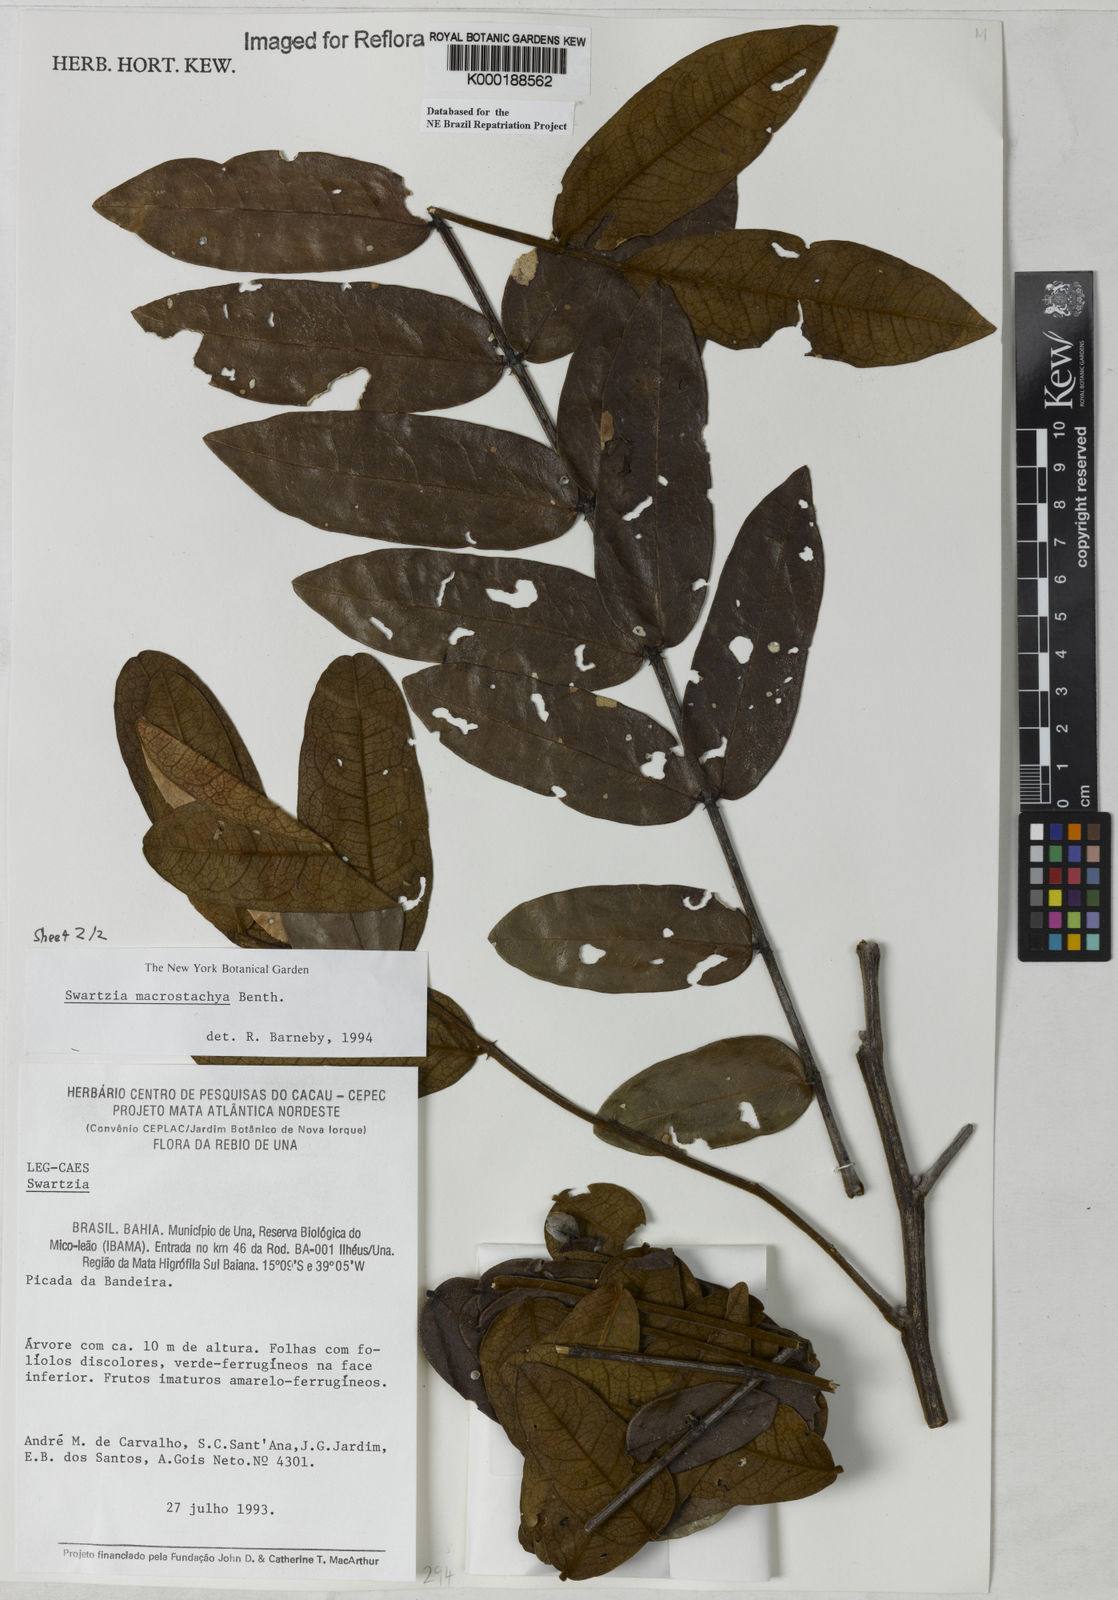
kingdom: Plantae
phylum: Tracheophyta
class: Magnoliopsida
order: Fabales
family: Fabaceae
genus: Swartzia
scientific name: Swartzia
